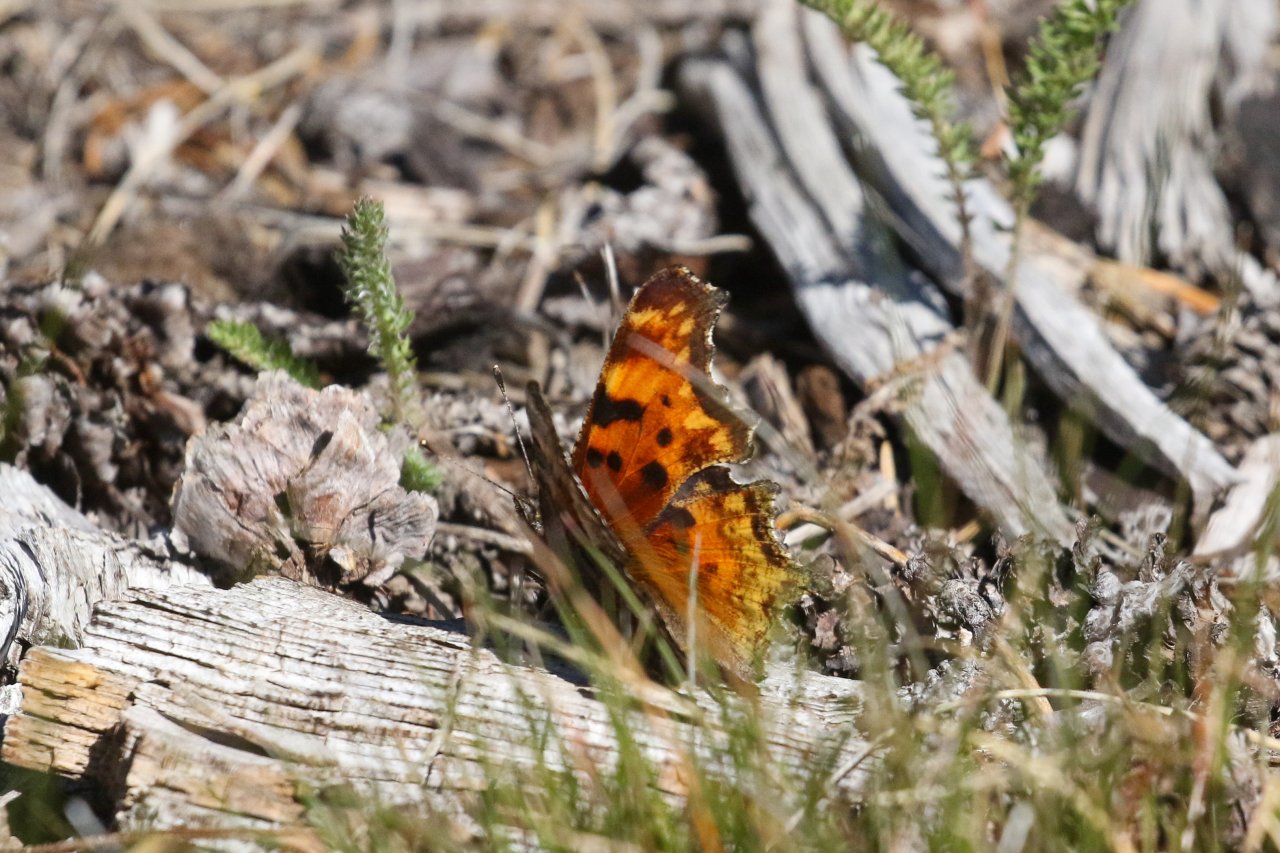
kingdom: Animalia
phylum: Arthropoda
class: Insecta
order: Lepidoptera
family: Nymphalidae
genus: Polygonia
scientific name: Polygonia gracilis
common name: Hoary Comma
